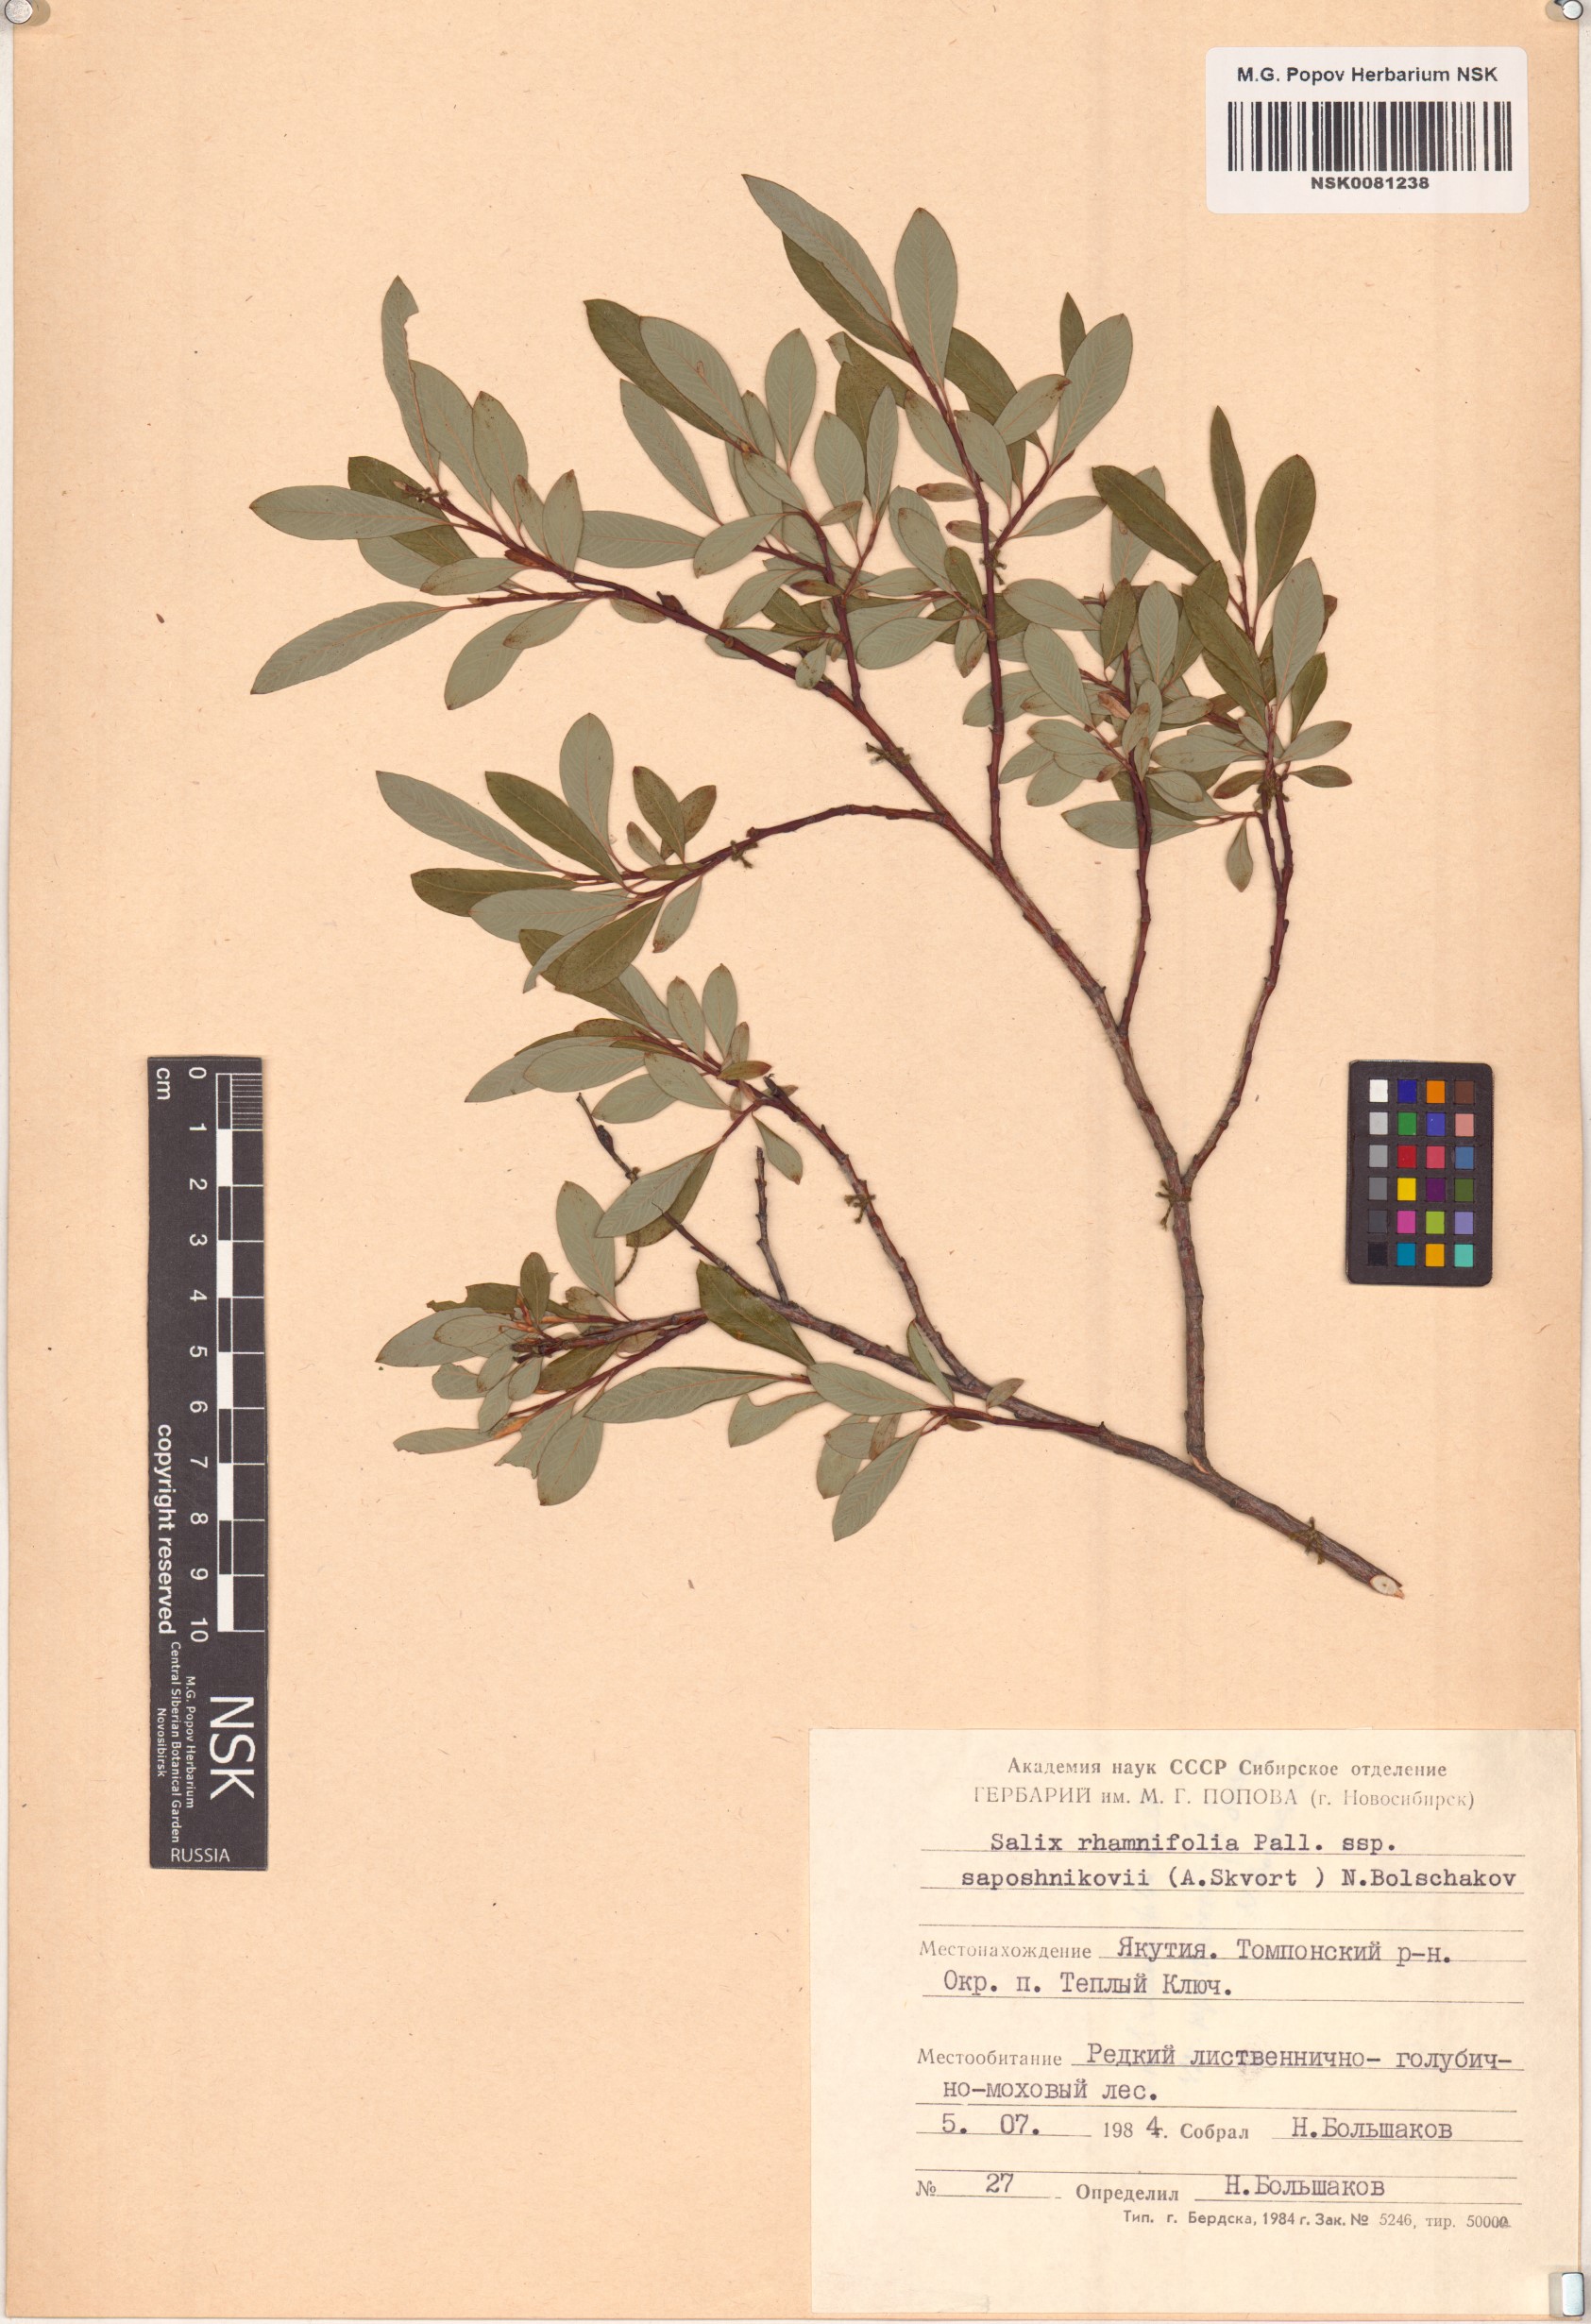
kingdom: Plantae
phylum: Tracheophyta
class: Magnoliopsida
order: Malpighiales
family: Salicaceae
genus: Salix
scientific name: Salix saposhnikovii
